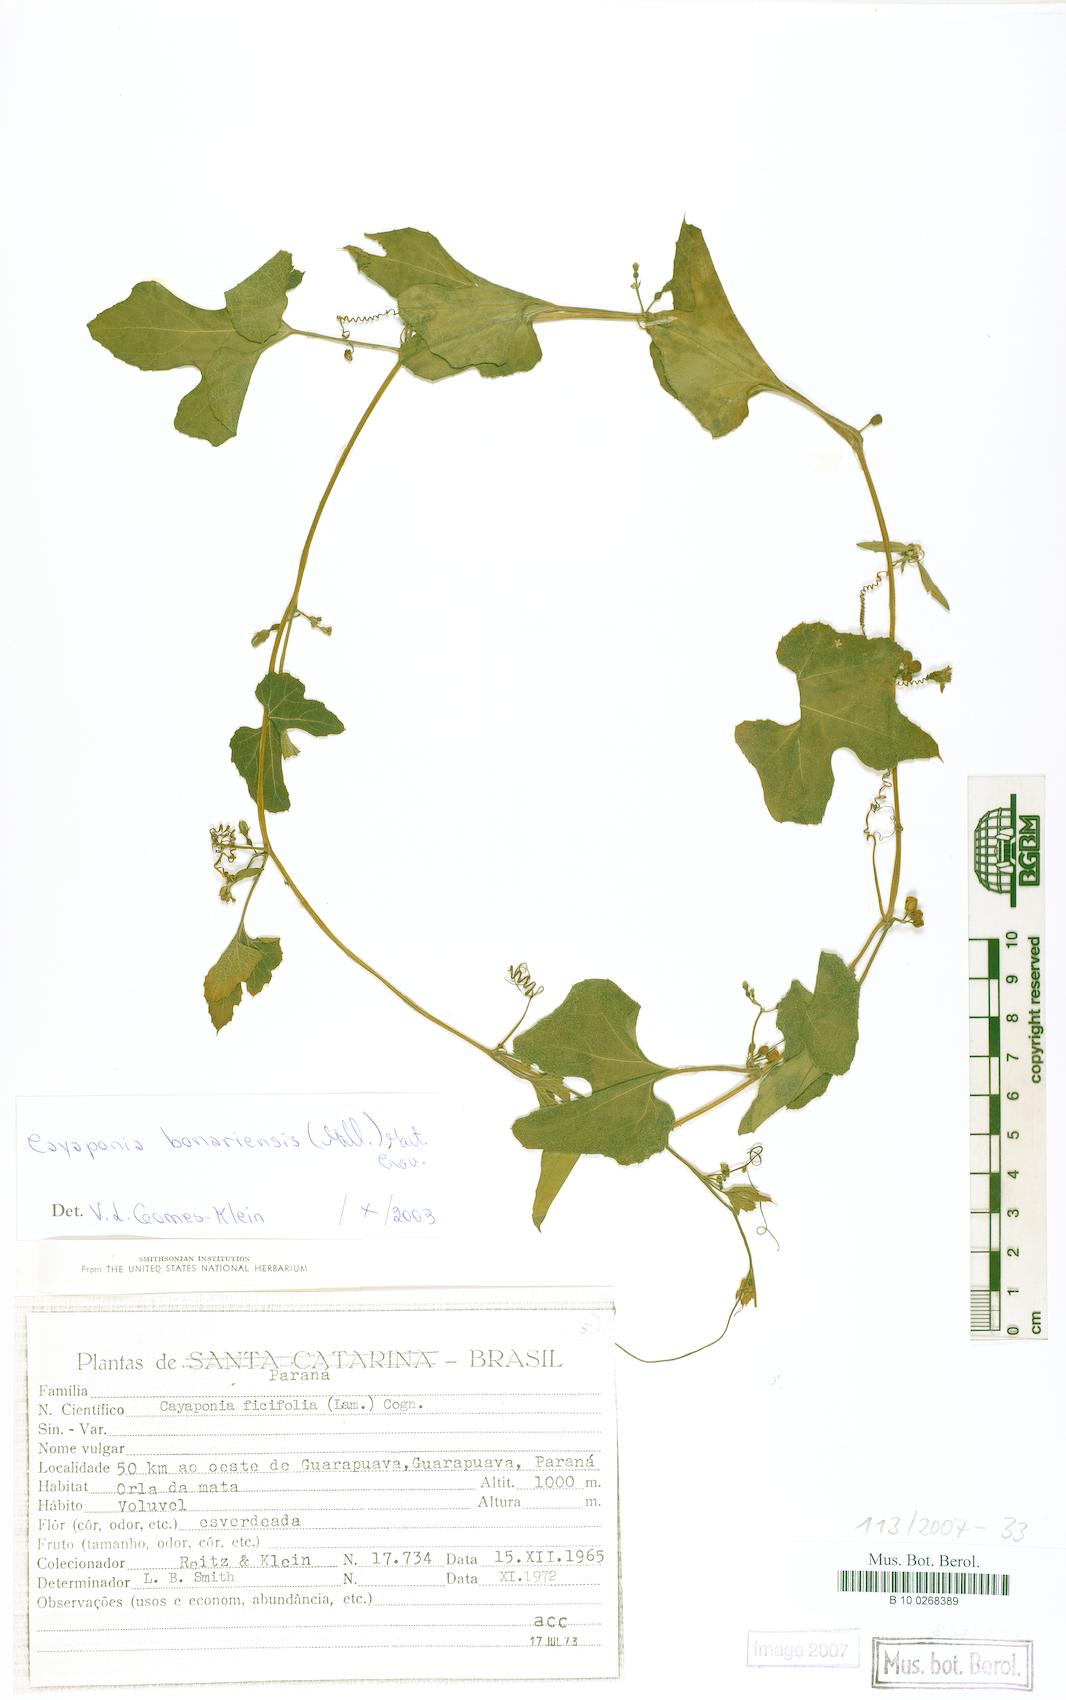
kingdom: Plantae
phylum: Tracheophyta
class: Magnoliopsida
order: Cucurbitales
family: Cucurbitaceae
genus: Cayaponia
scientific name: Cayaponia bonariensis
